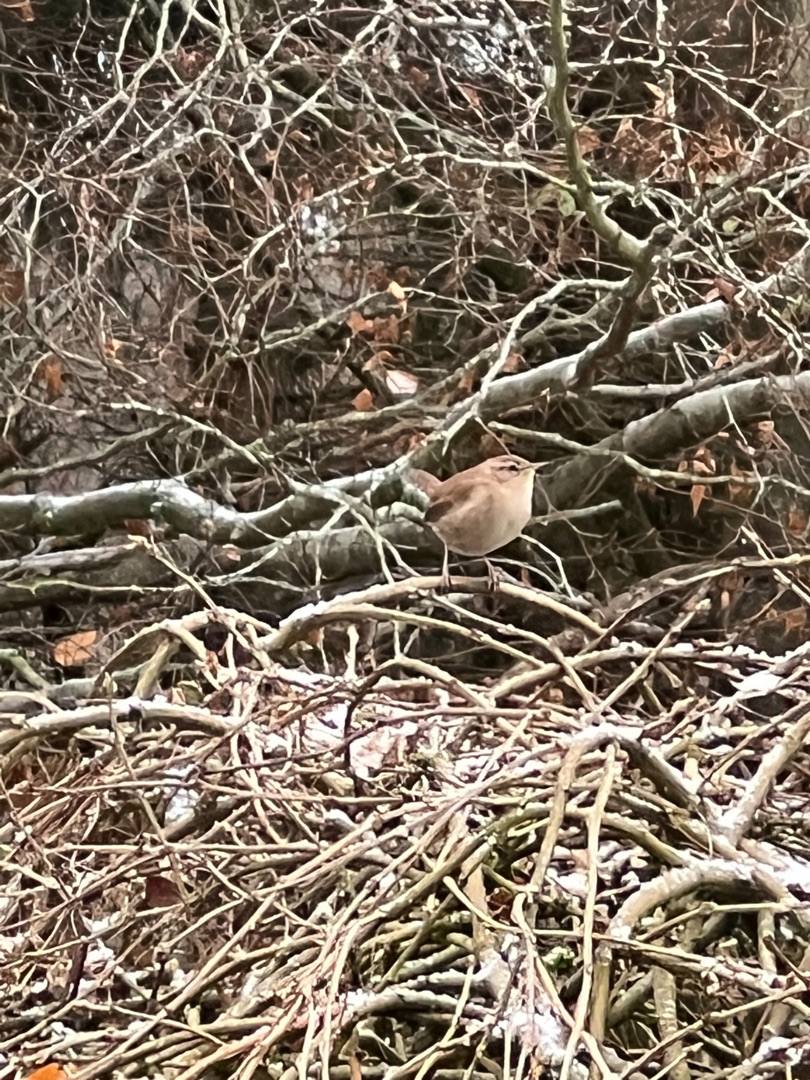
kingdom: Animalia
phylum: Chordata
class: Aves
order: Passeriformes
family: Troglodytidae
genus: Troglodytes
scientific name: Troglodytes troglodytes
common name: Gærdesmutte
